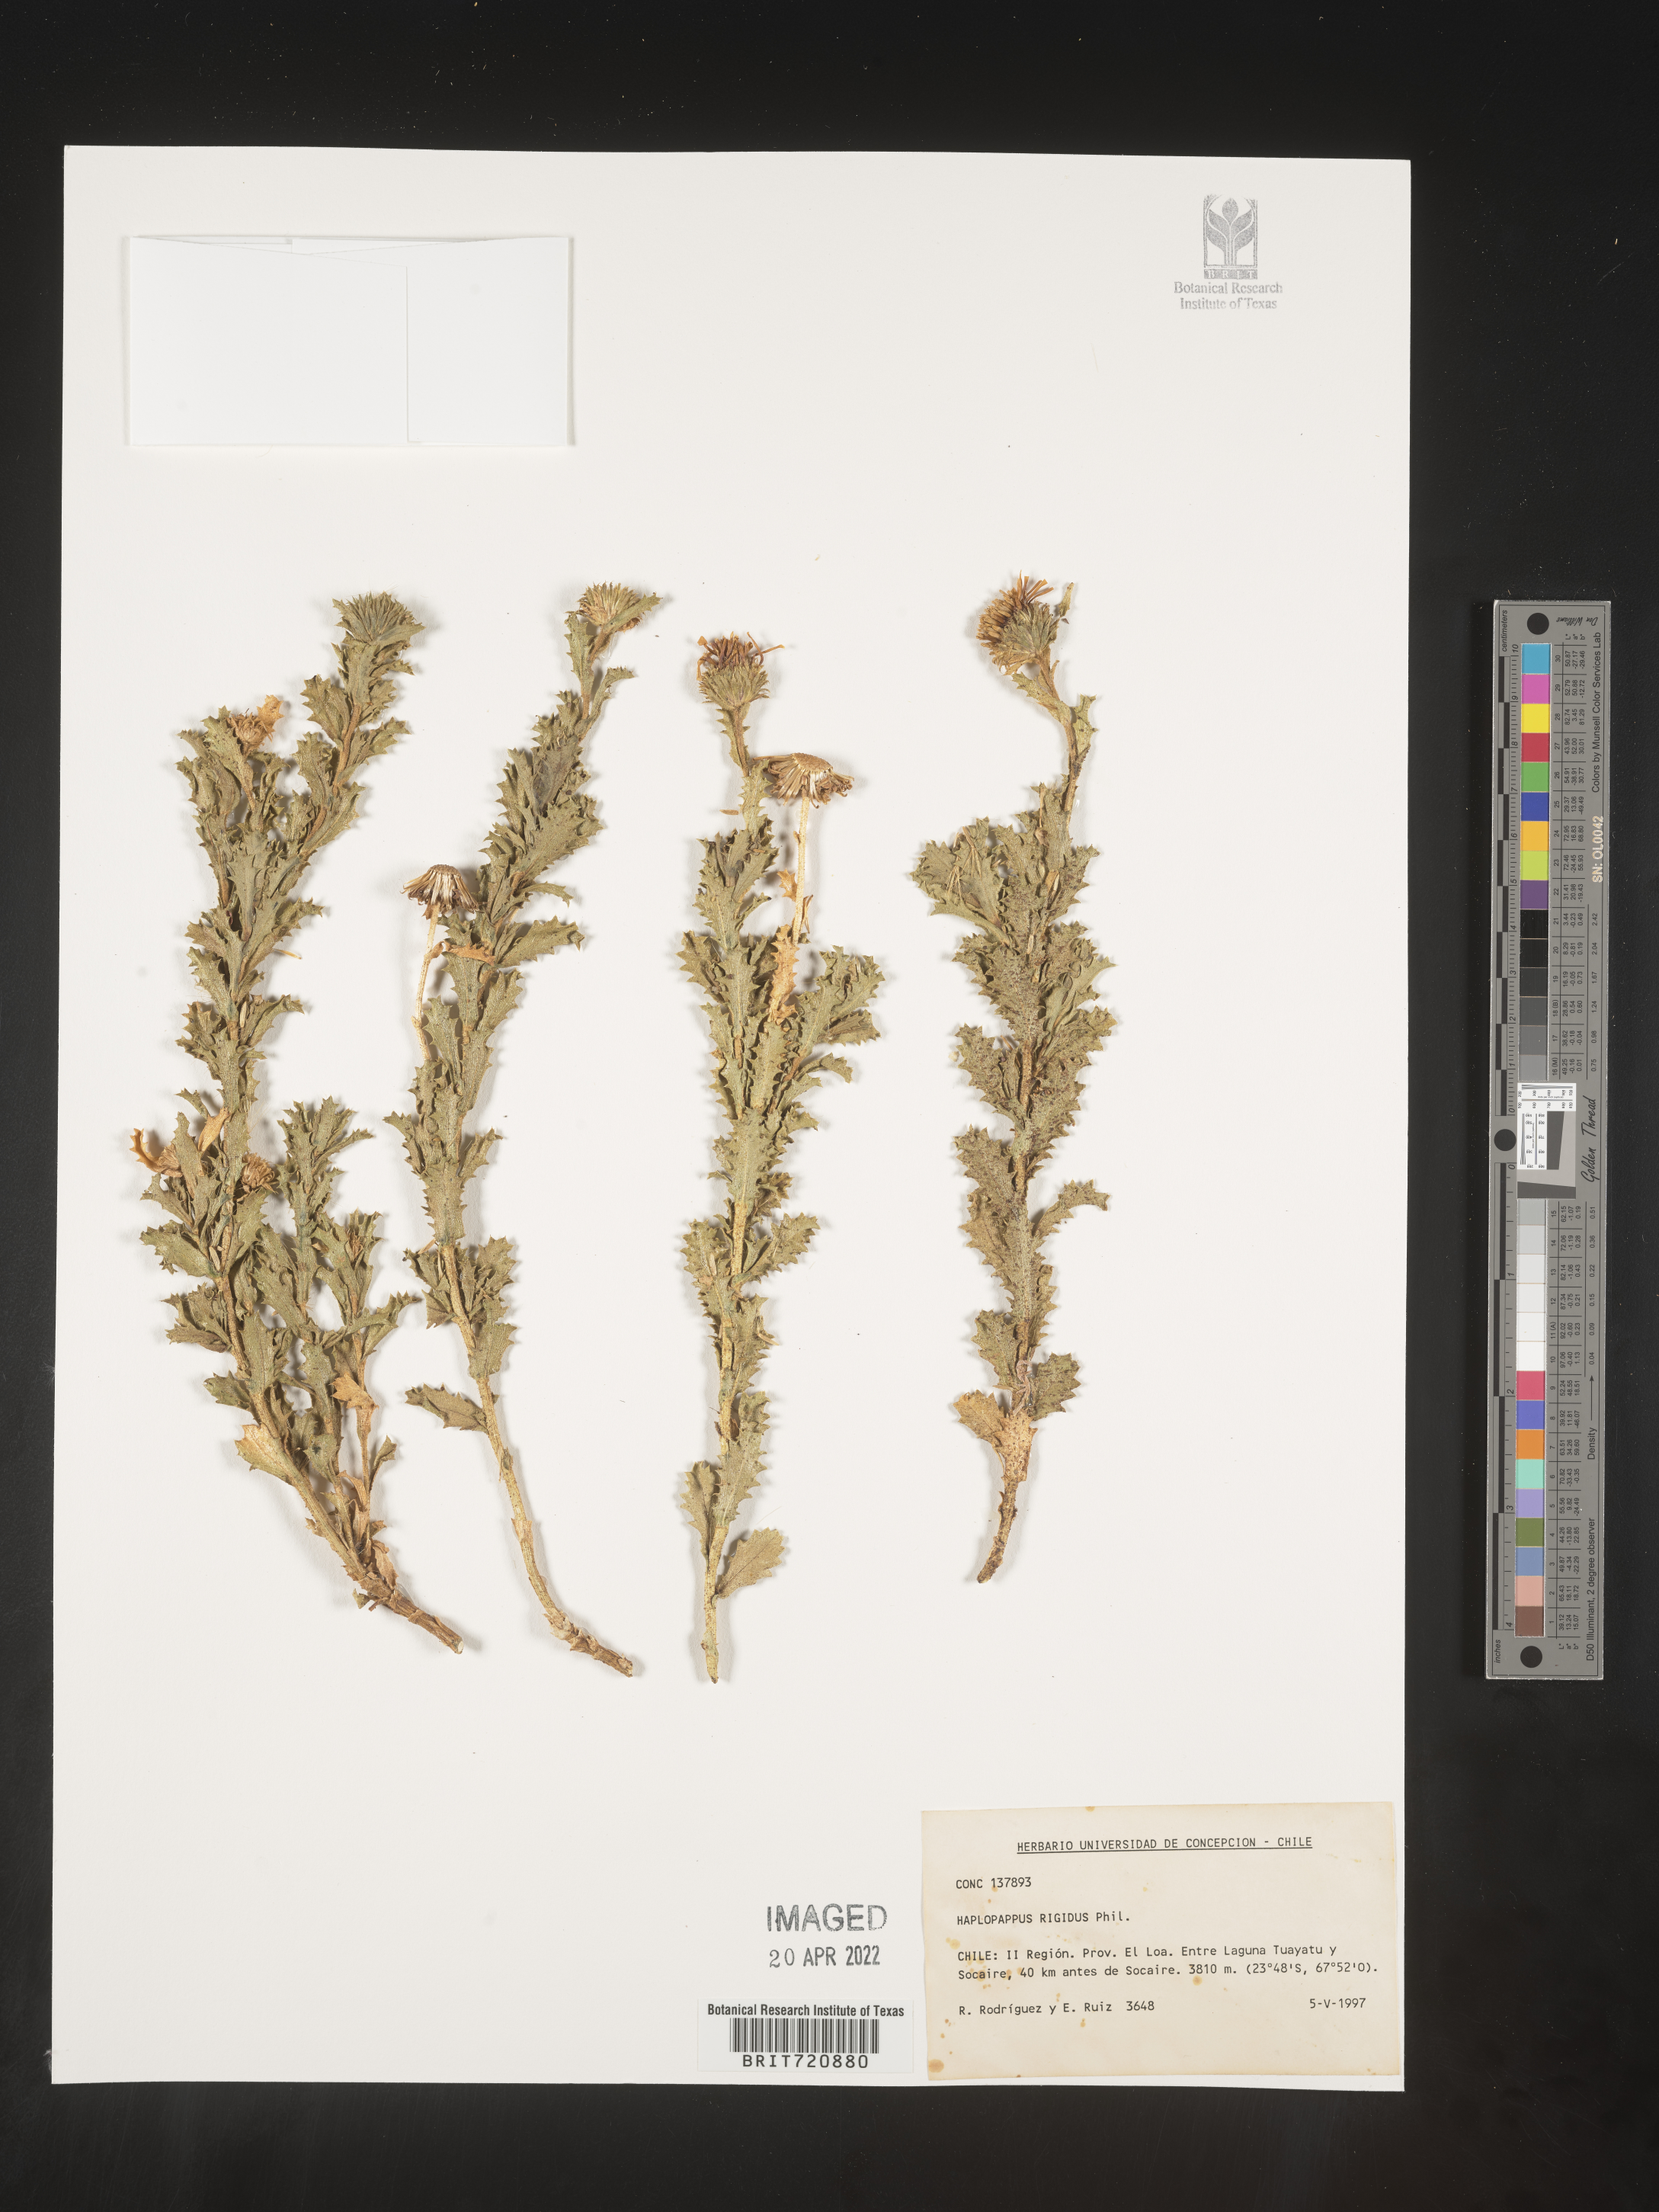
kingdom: Plantae
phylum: Tracheophyta
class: Magnoliopsida
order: Asterales
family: Asteraceae
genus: Haplopappus
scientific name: Haplopappus
